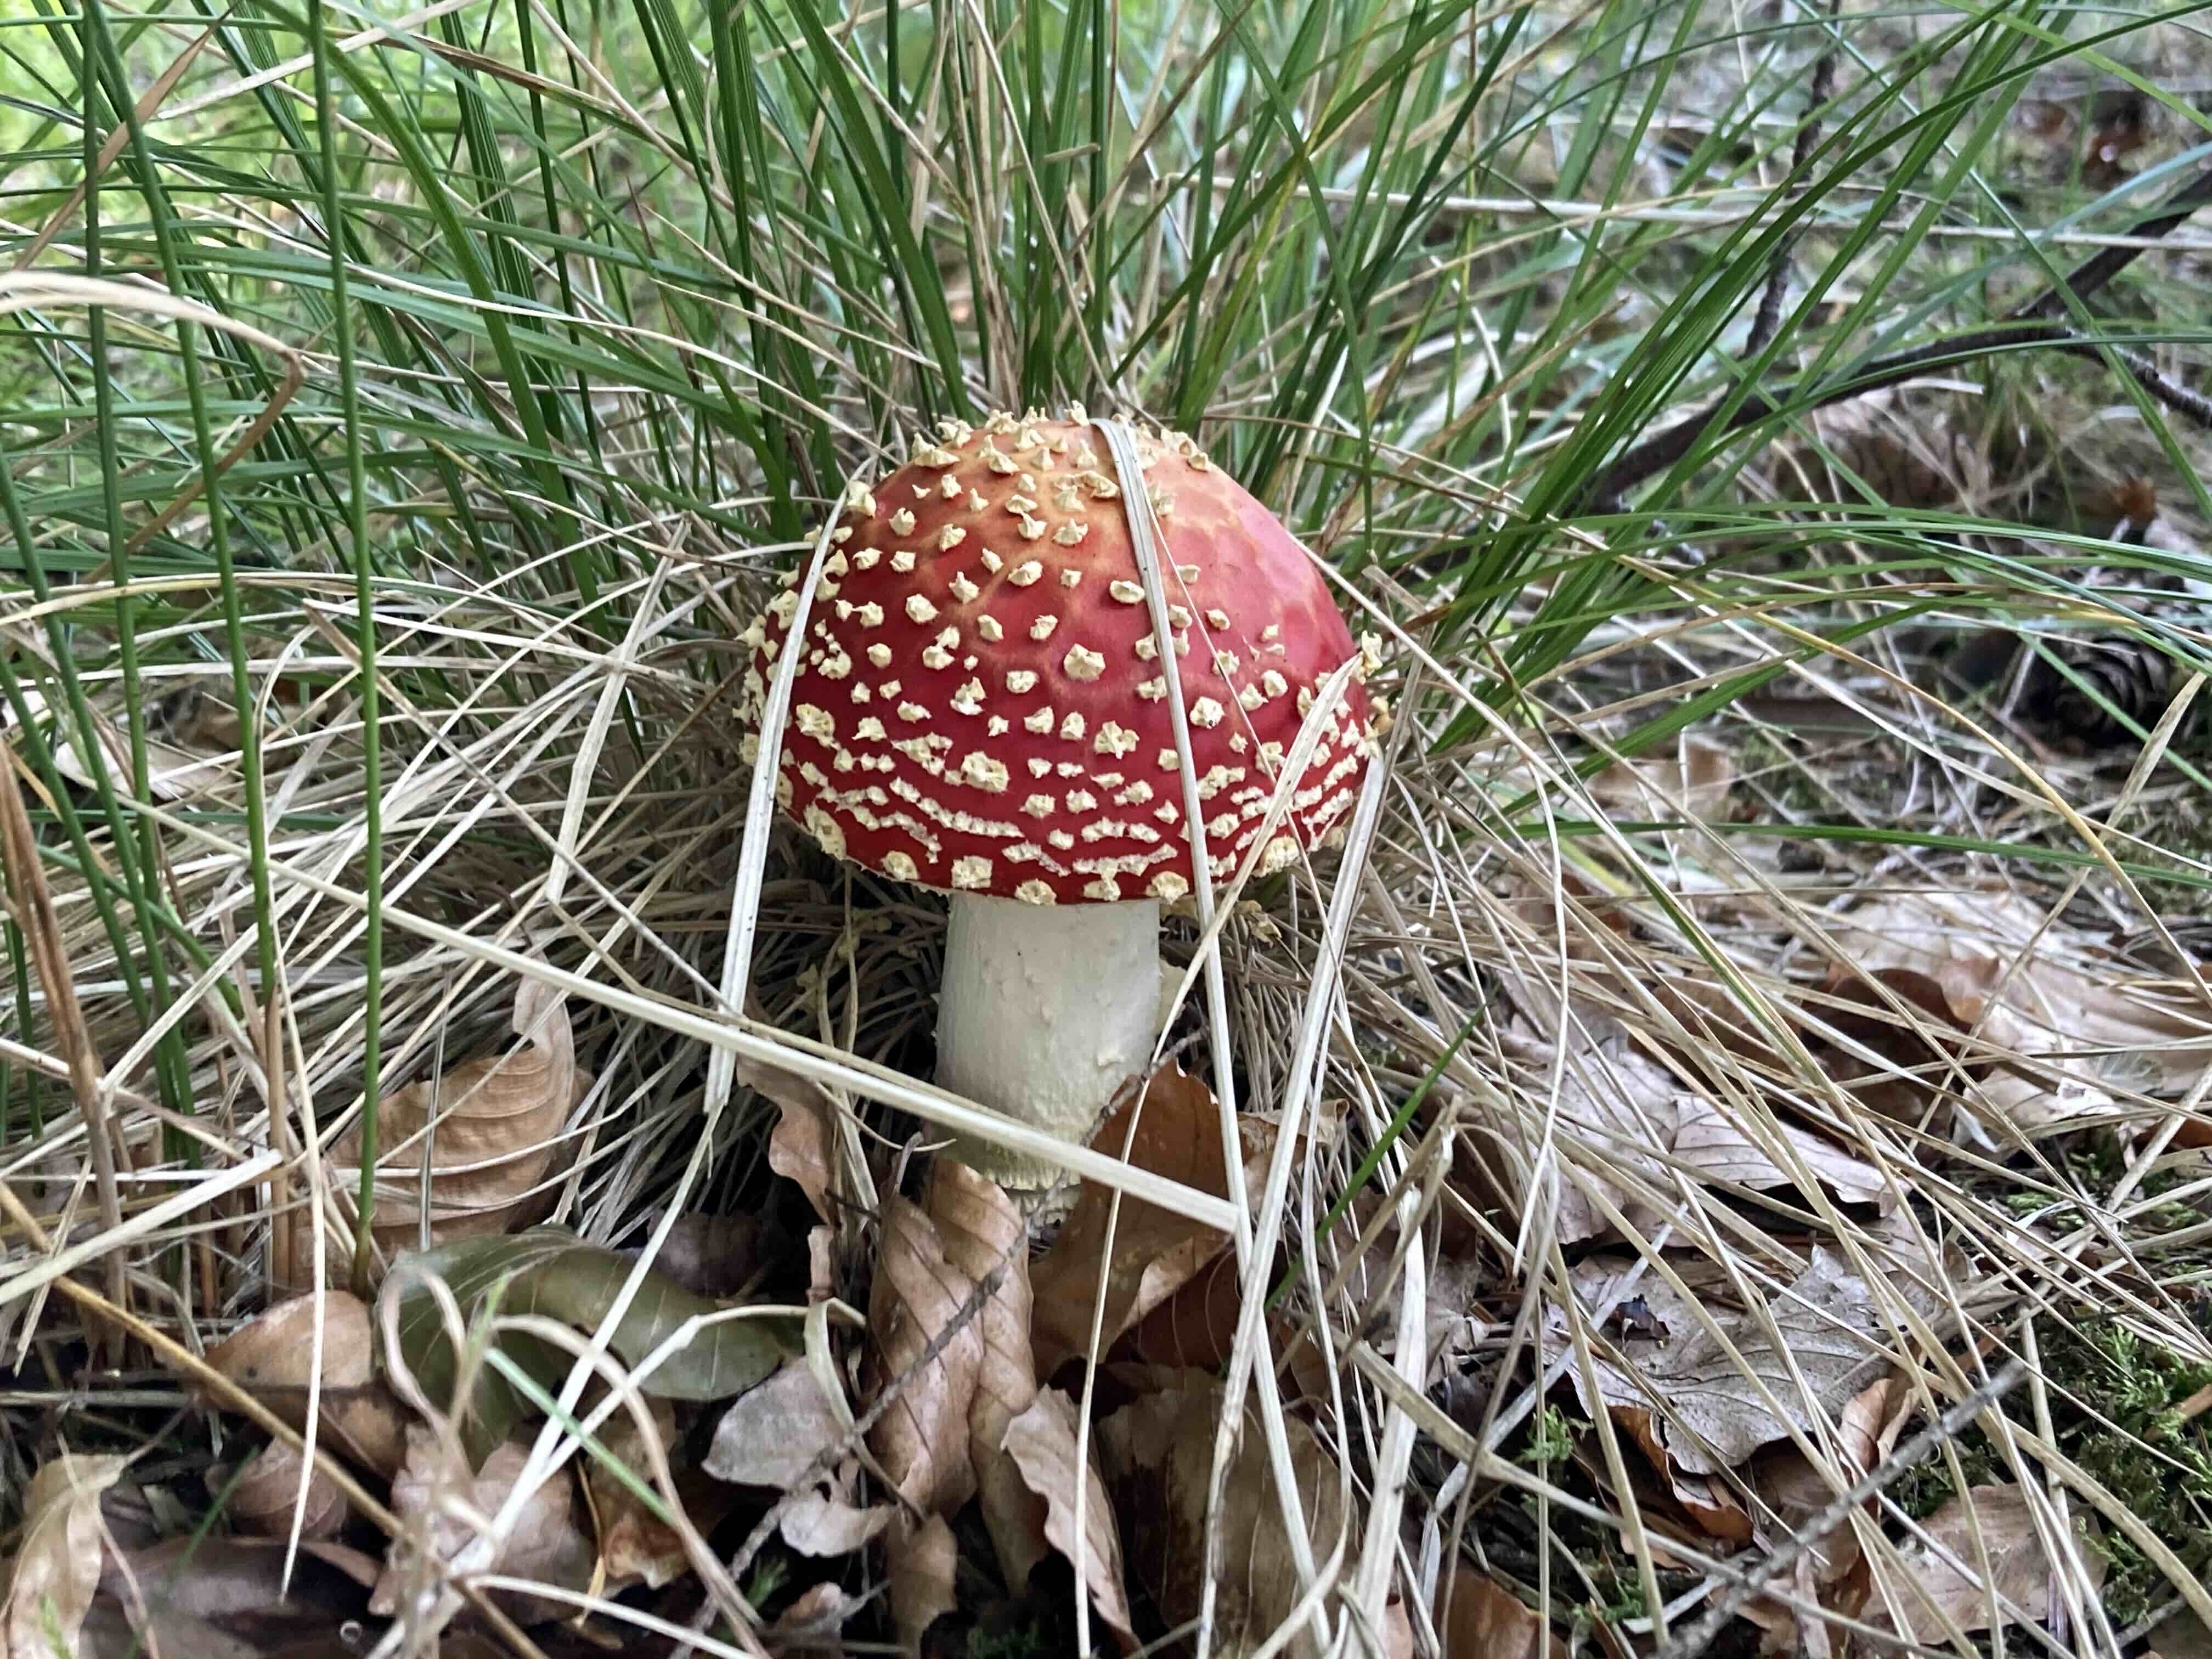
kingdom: Fungi
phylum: Basidiomycota
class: Agaricomycetes
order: Agaricales
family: Amanitaceae
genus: Amanita
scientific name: Amanita muscaria
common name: rød fluesvamp
